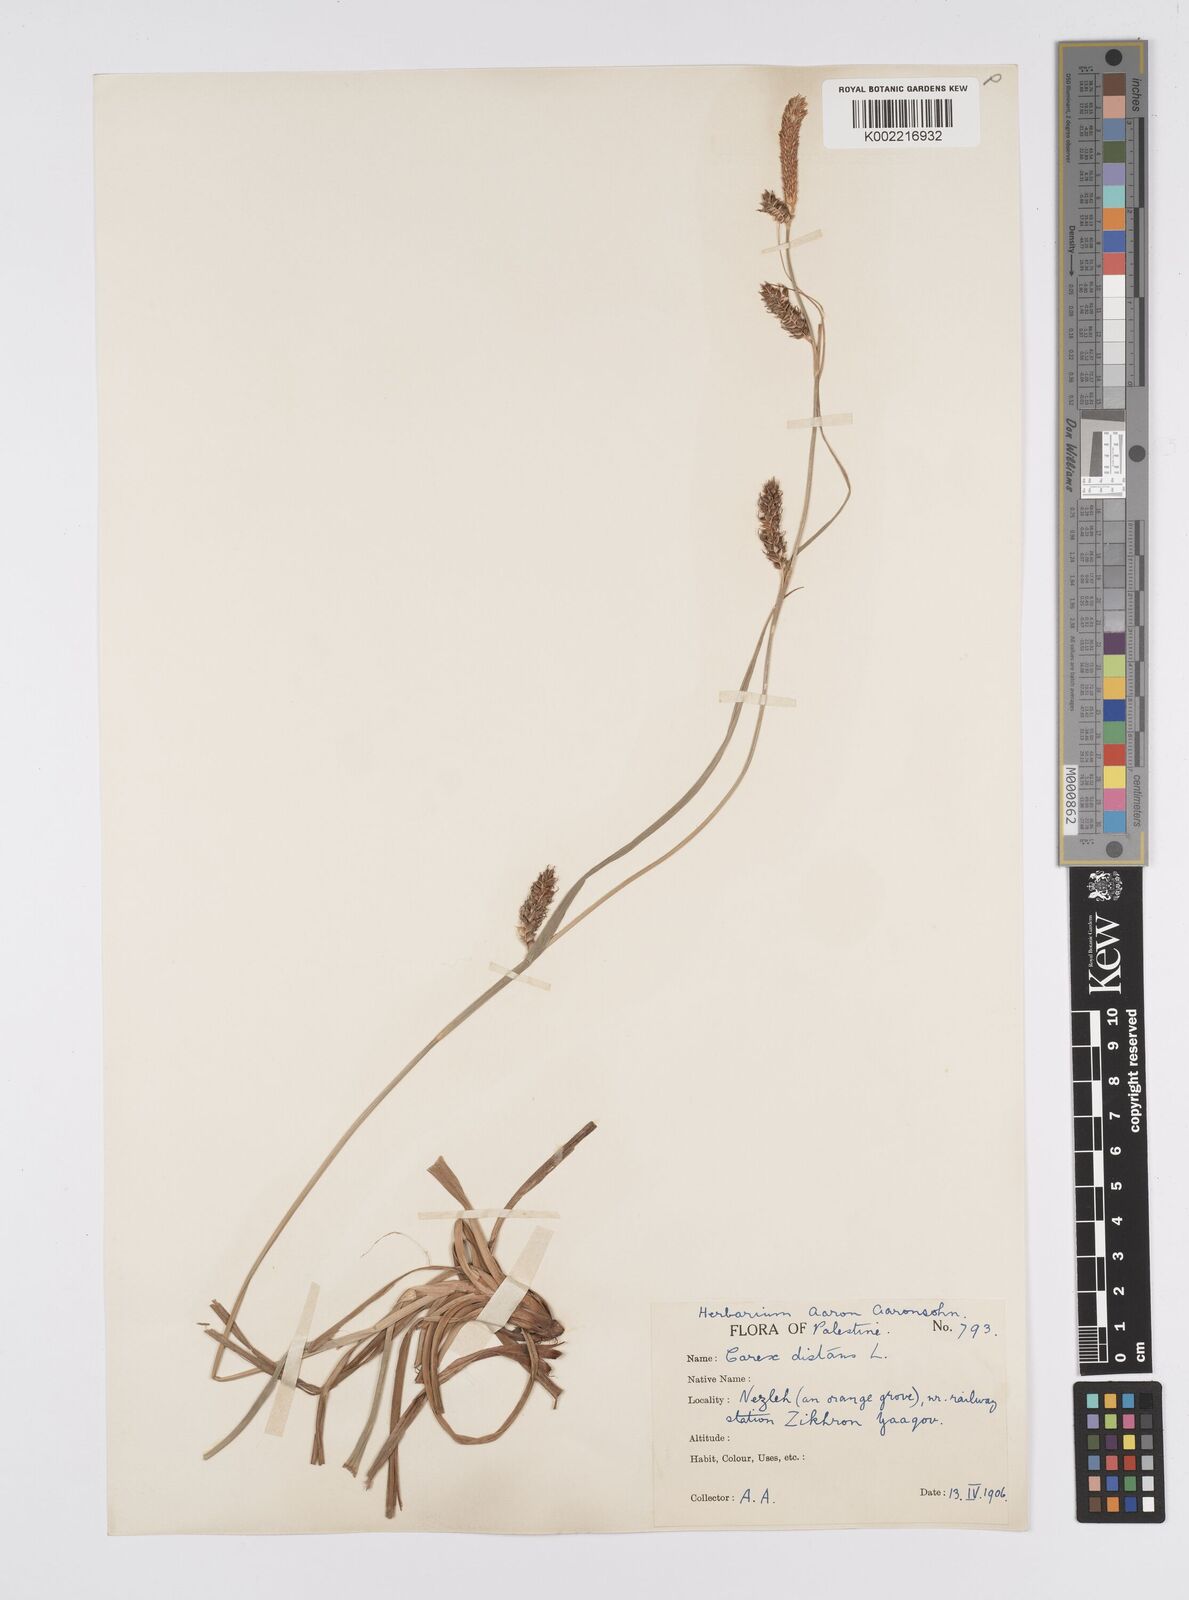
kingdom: Plantae
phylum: Tracheophyta
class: Liliopsida
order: Poales
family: Cyperaceae
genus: Carex
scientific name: Carex distans
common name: Distant sedge
